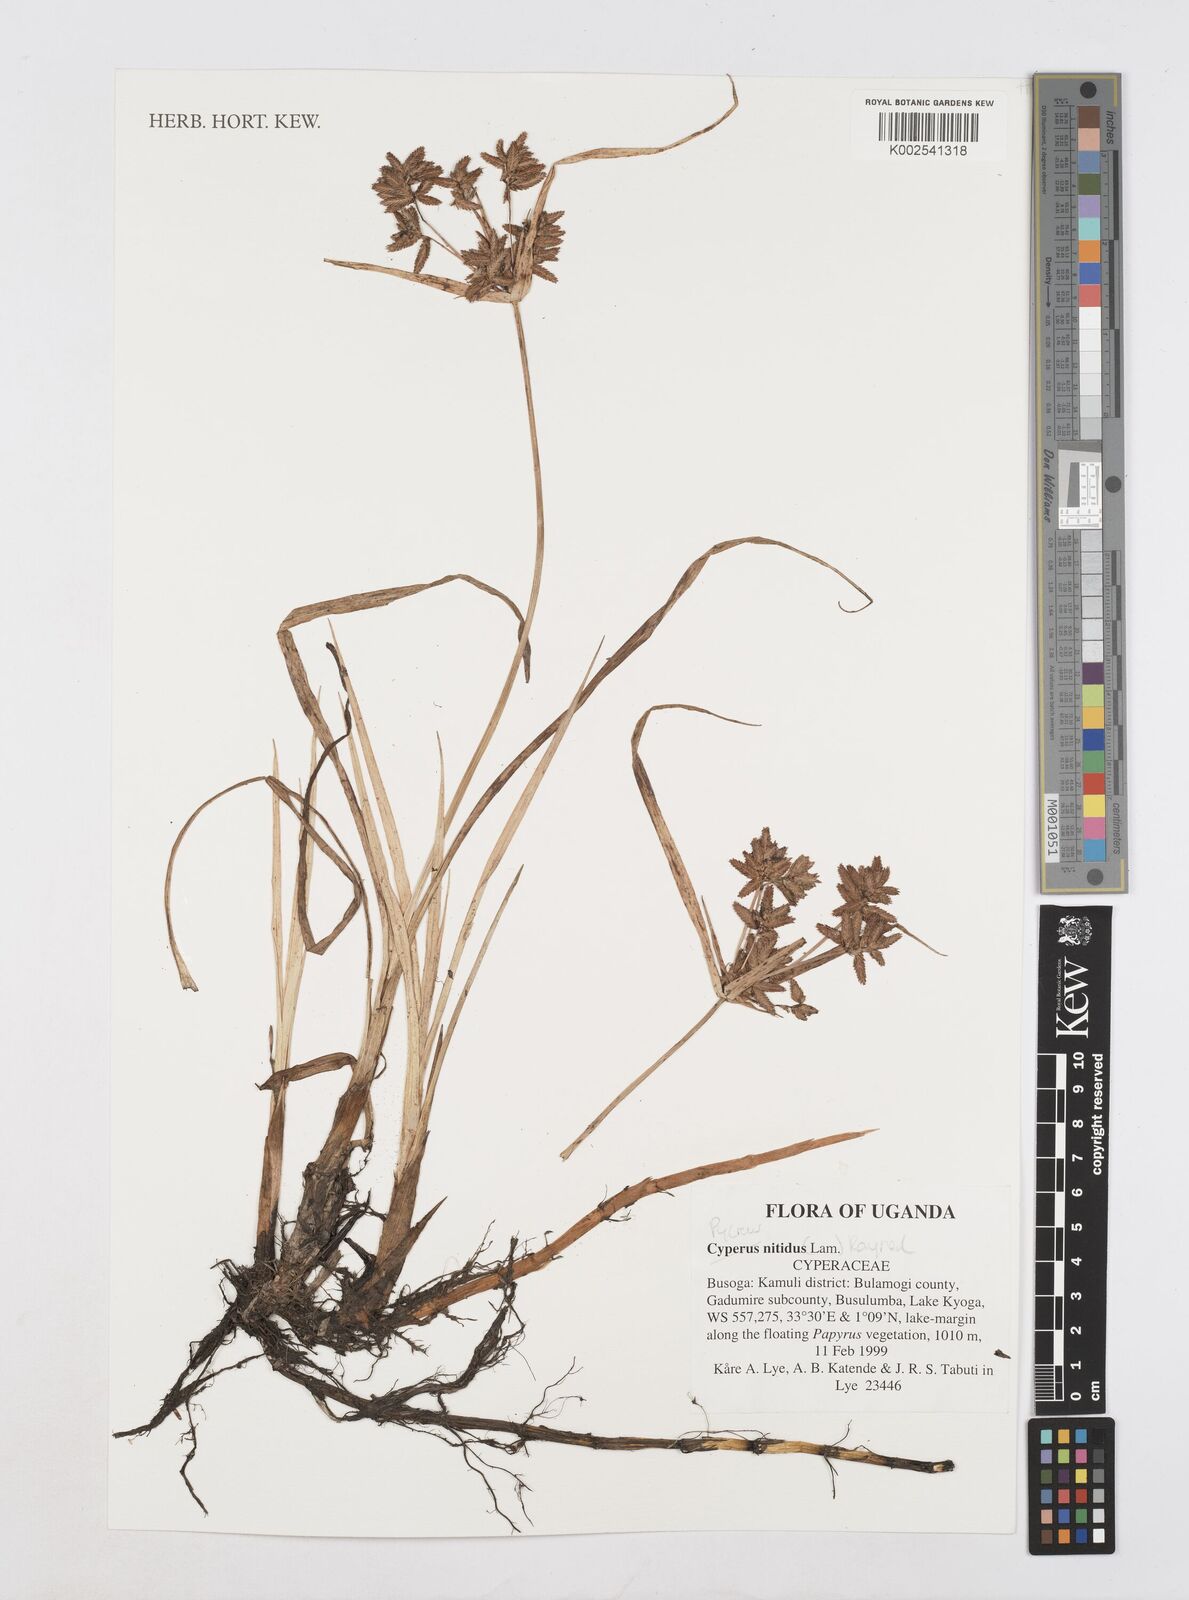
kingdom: Plantae
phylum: Tracheophyta
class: Liliopsida
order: Poales
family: Cyperaceae
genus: Cyperus
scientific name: Cyperus nitidus
